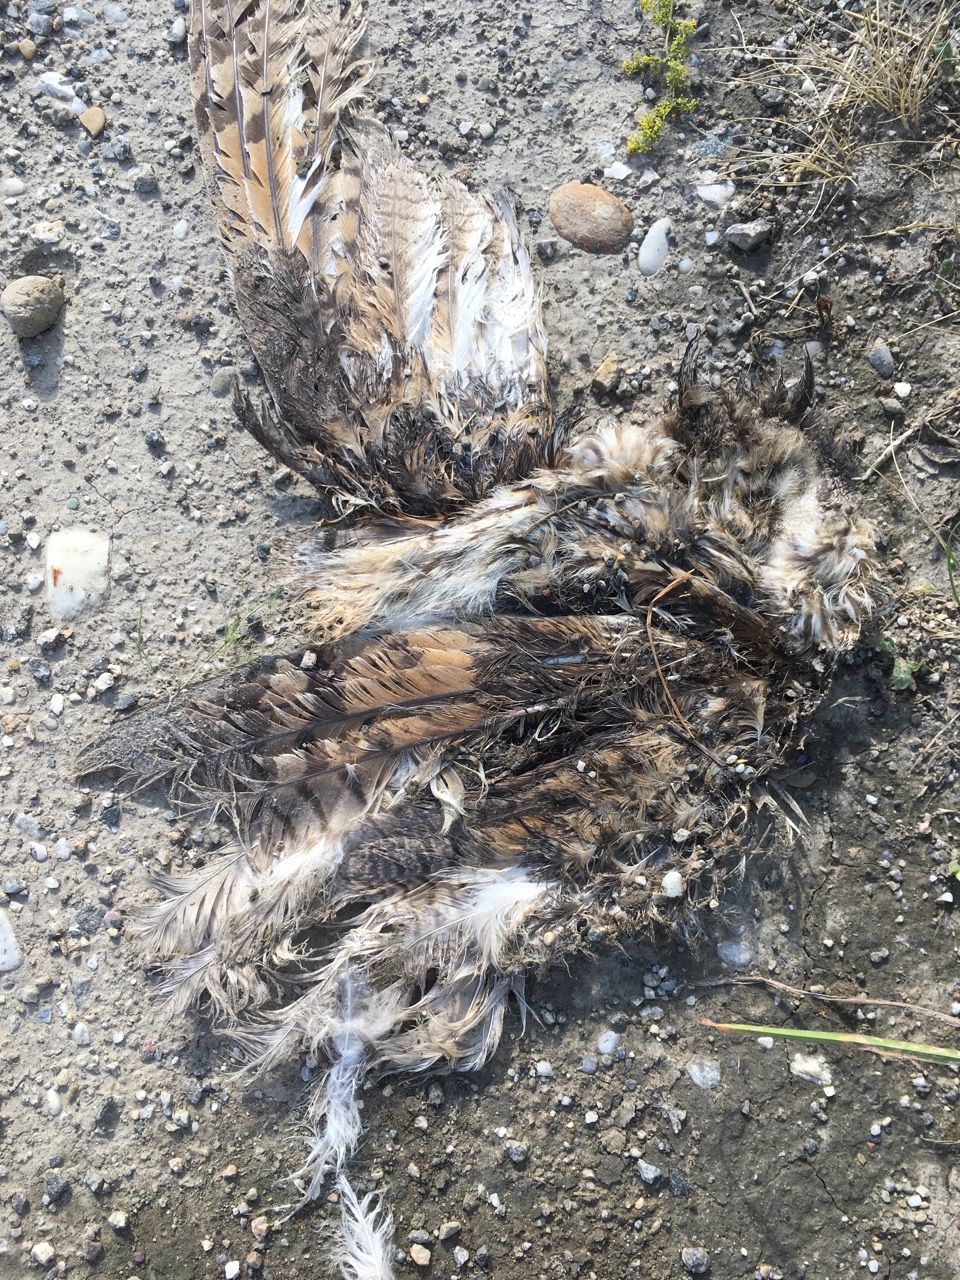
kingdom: Animalia
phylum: Chordata
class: Aves
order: Strigiformes
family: Strigidae
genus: Asio
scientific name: Asio otus
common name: Long-eared owl
